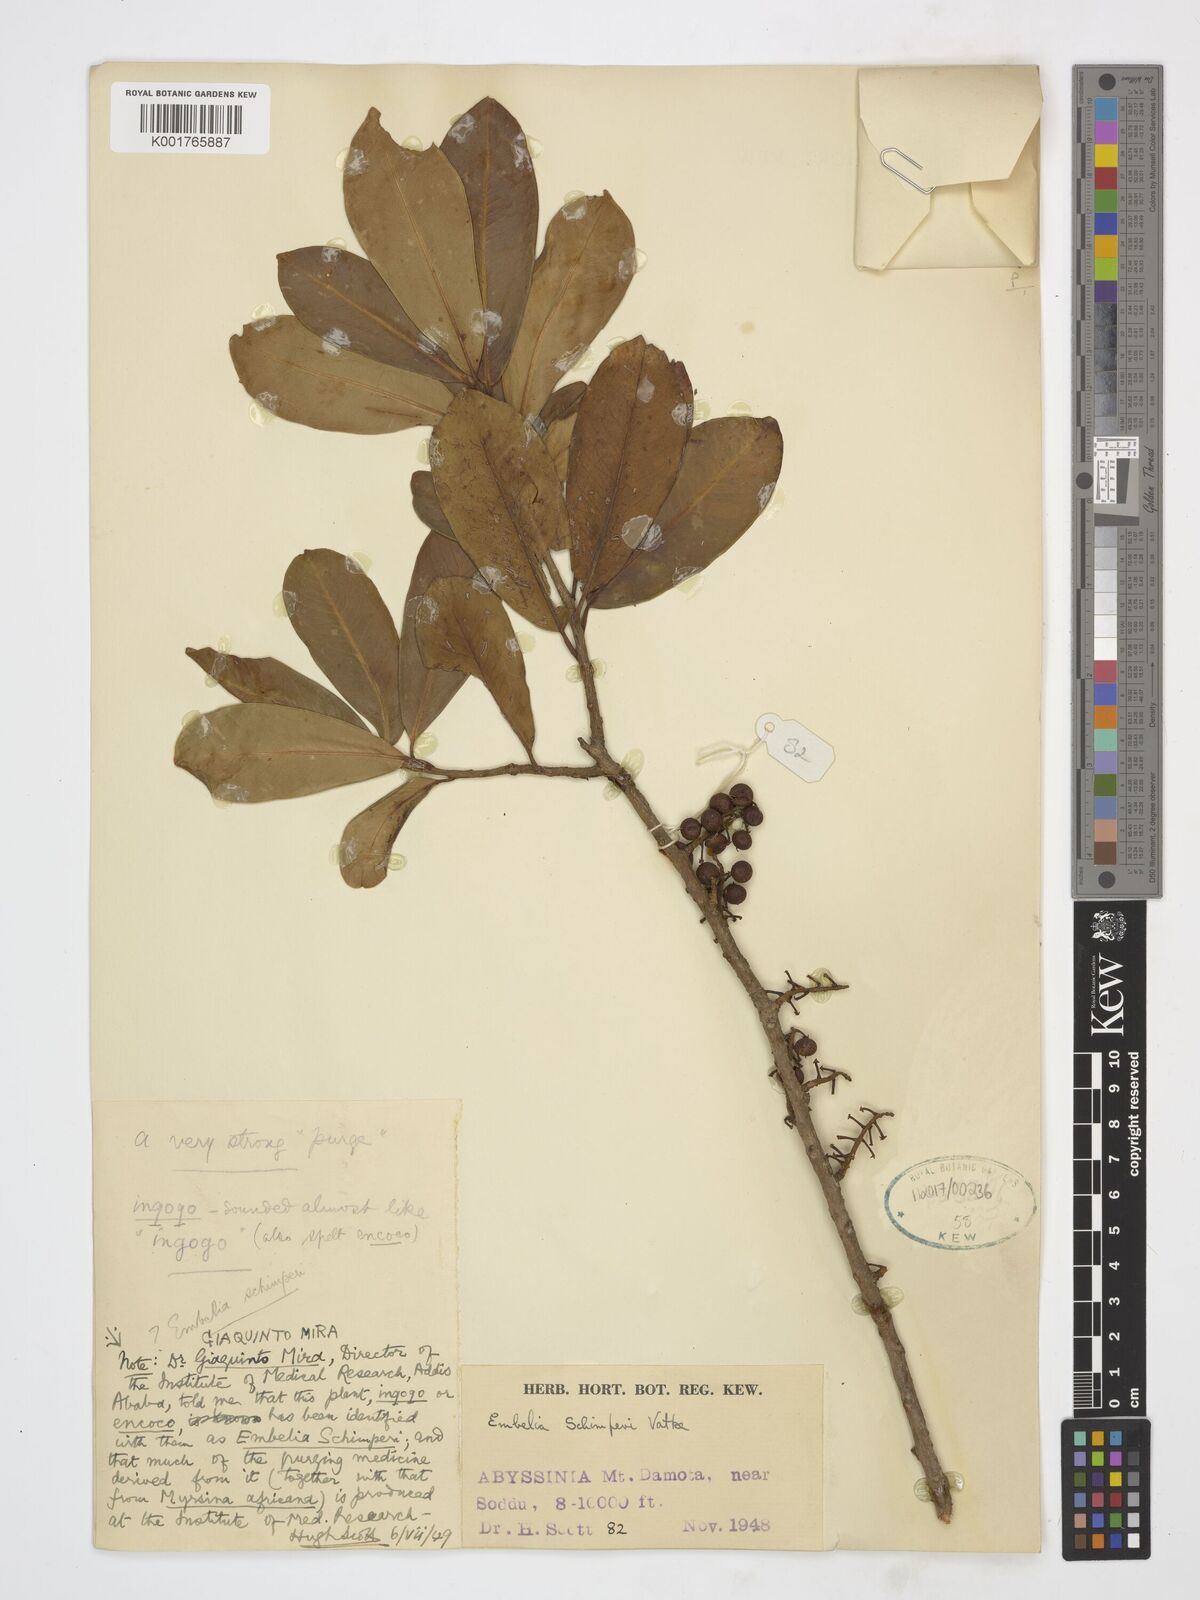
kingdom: Plantae
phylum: Tracheophyta
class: Magnoliopsida
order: Ericales
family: Primulaceae
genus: Embelia
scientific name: Embelia schimperi
